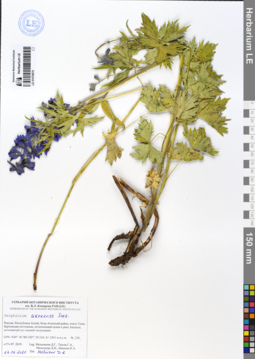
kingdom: Plantae
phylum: Tracheophyta
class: Magnoliopsida
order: Ranunculales
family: Ranunculaceae
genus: Delphinium
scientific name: Delphinium ukokense
